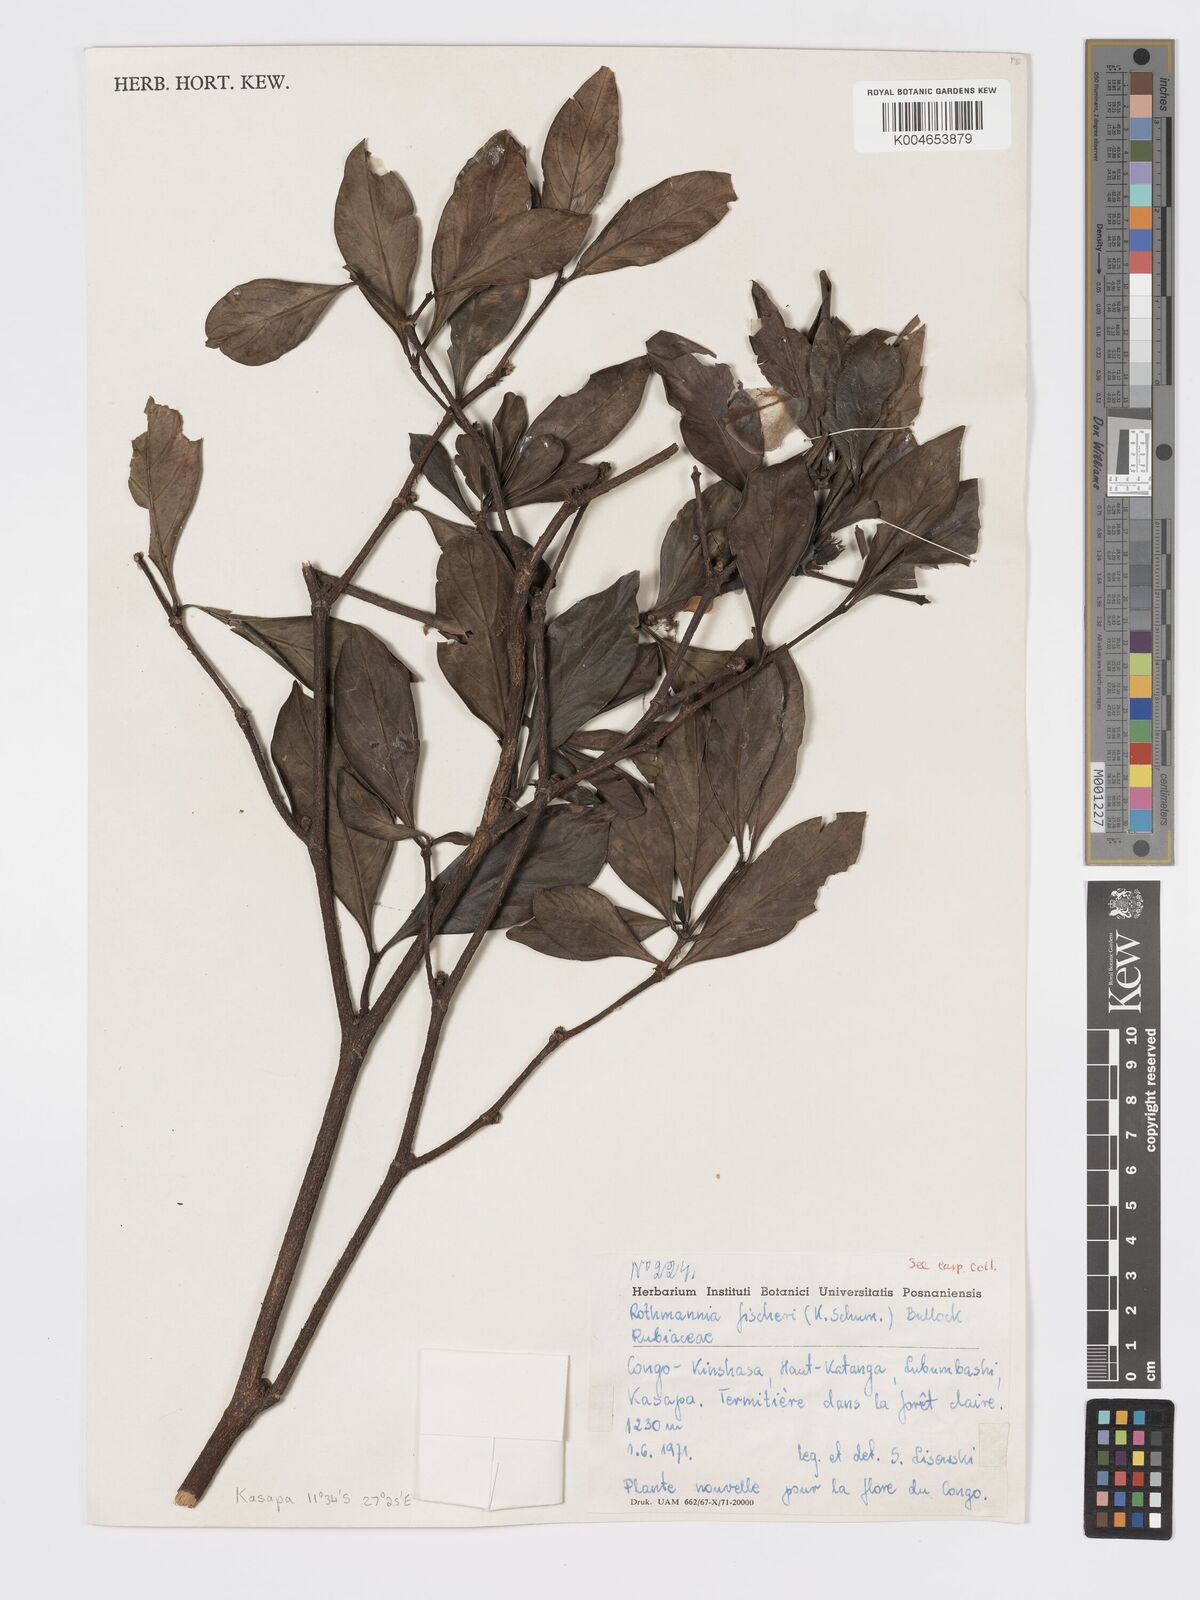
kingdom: Plantae
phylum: Tracheophyta
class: Magnoliopsida
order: Gentianales
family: Rubiaceae
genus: Rothmannia
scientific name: Rothmannia fischeri
